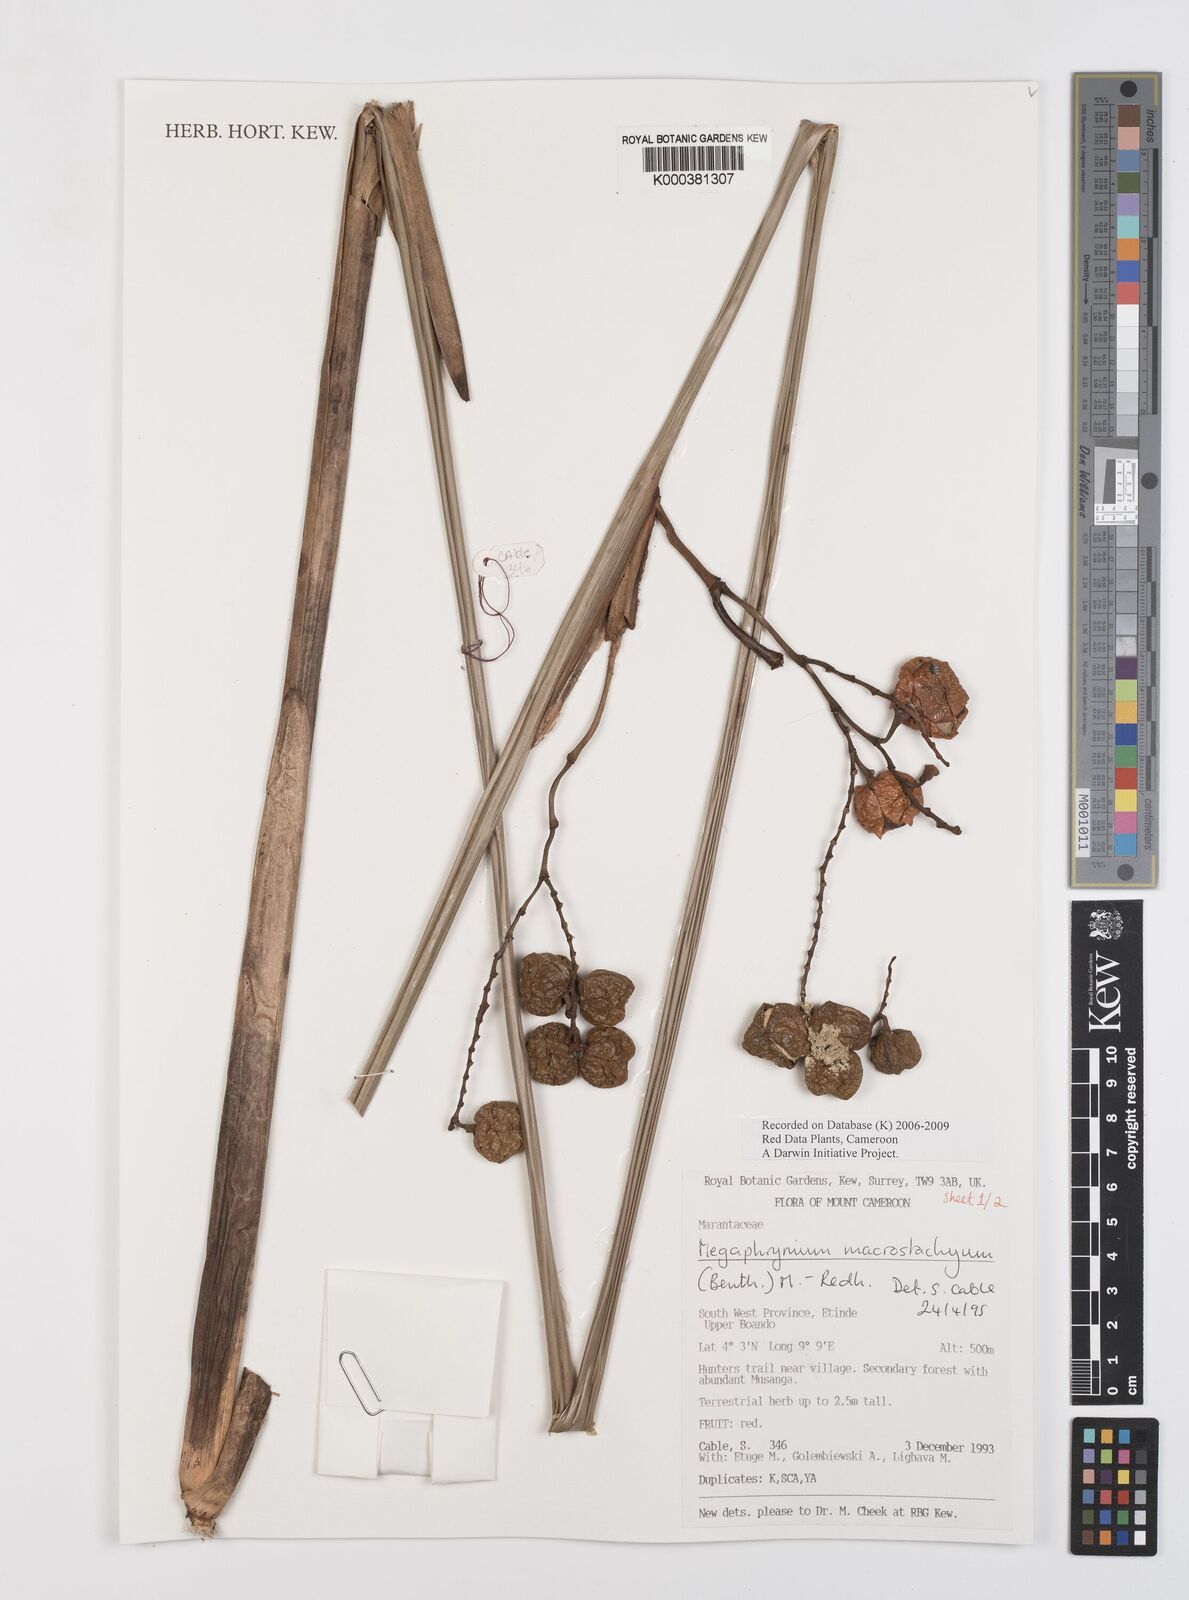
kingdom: Plantae
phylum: Tracheophyta
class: Liliopsida
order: Zingiberales
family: Marantaceae
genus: Megaphrynium
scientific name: Megaphrynium macrostachyum
